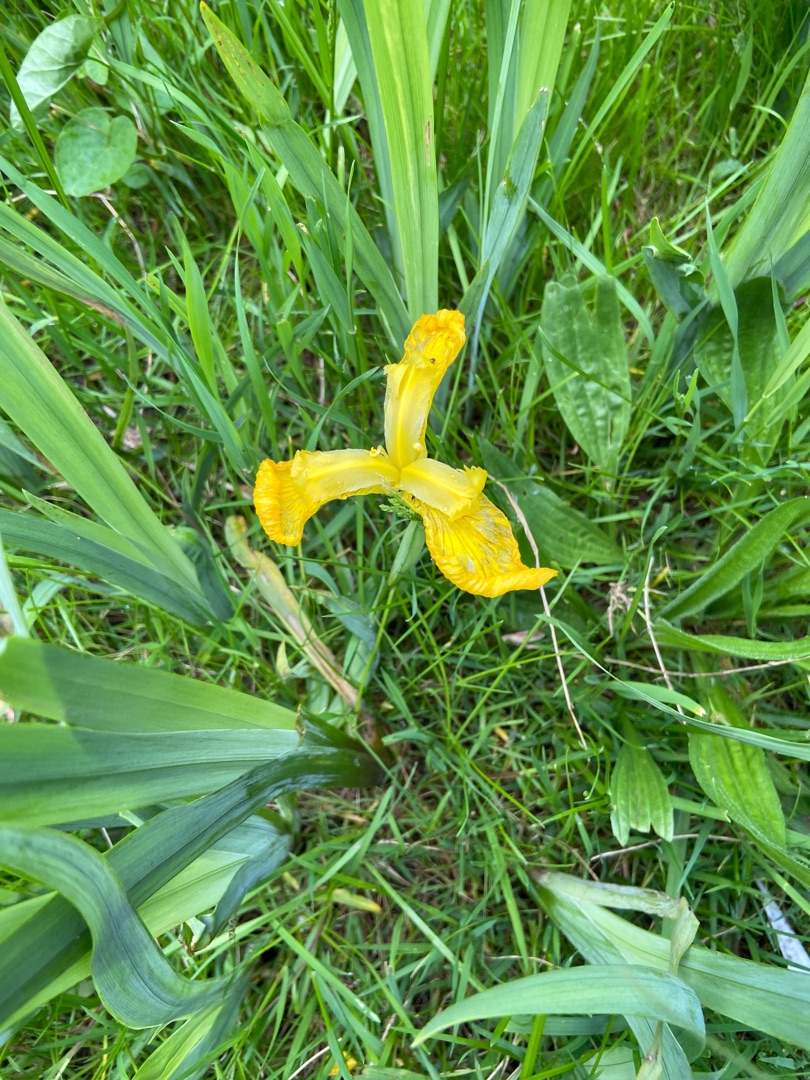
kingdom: Plantae
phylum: Tracheophyta
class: Liliopsida
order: Asparagales
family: Iridaceae
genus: Iris
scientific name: Iris pseudacorus
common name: Gul iris
